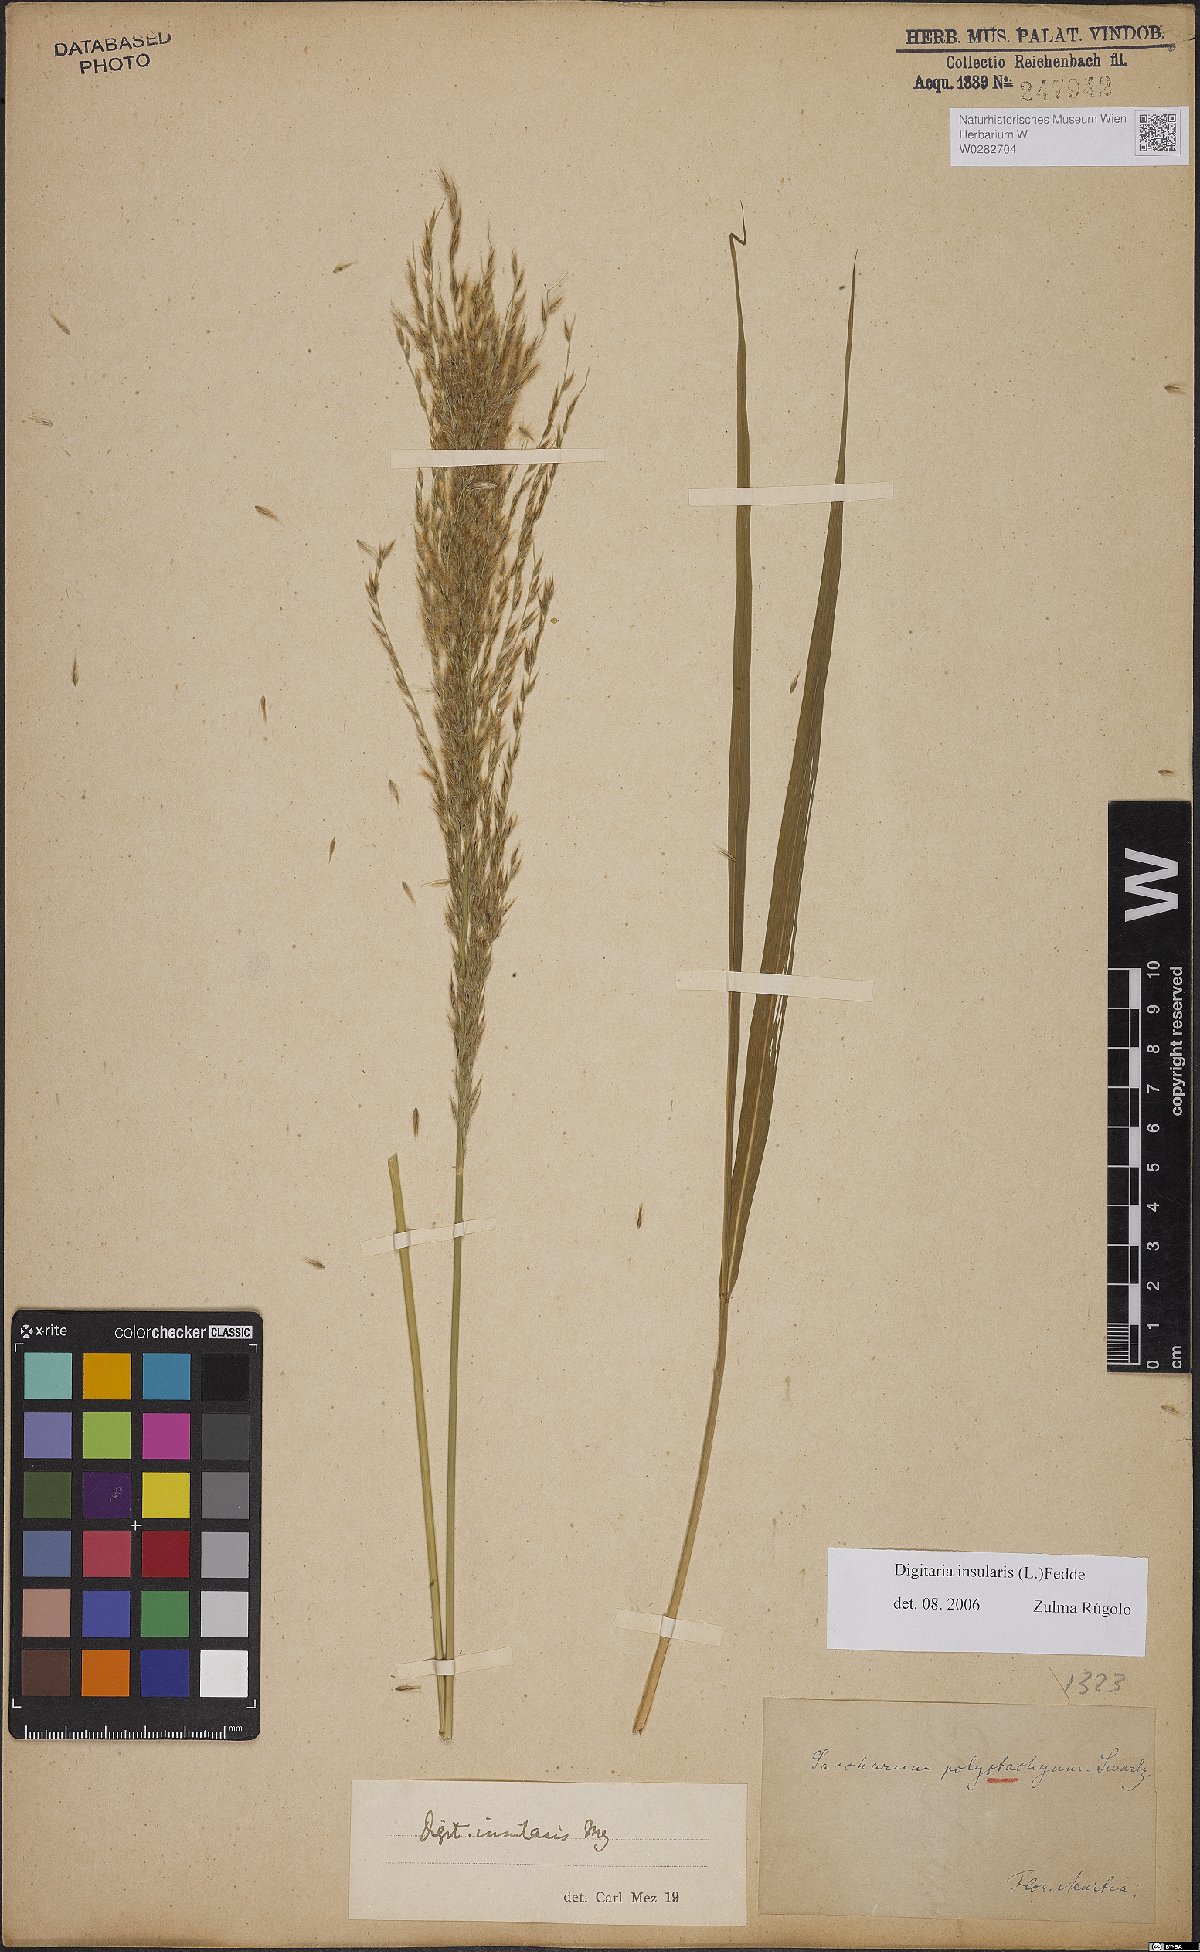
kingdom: Plantae
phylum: Tracheophyta
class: Liliopsida
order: Poales
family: Poaceae
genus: Digitaria
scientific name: Digitaria insularis
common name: Sourgrass
